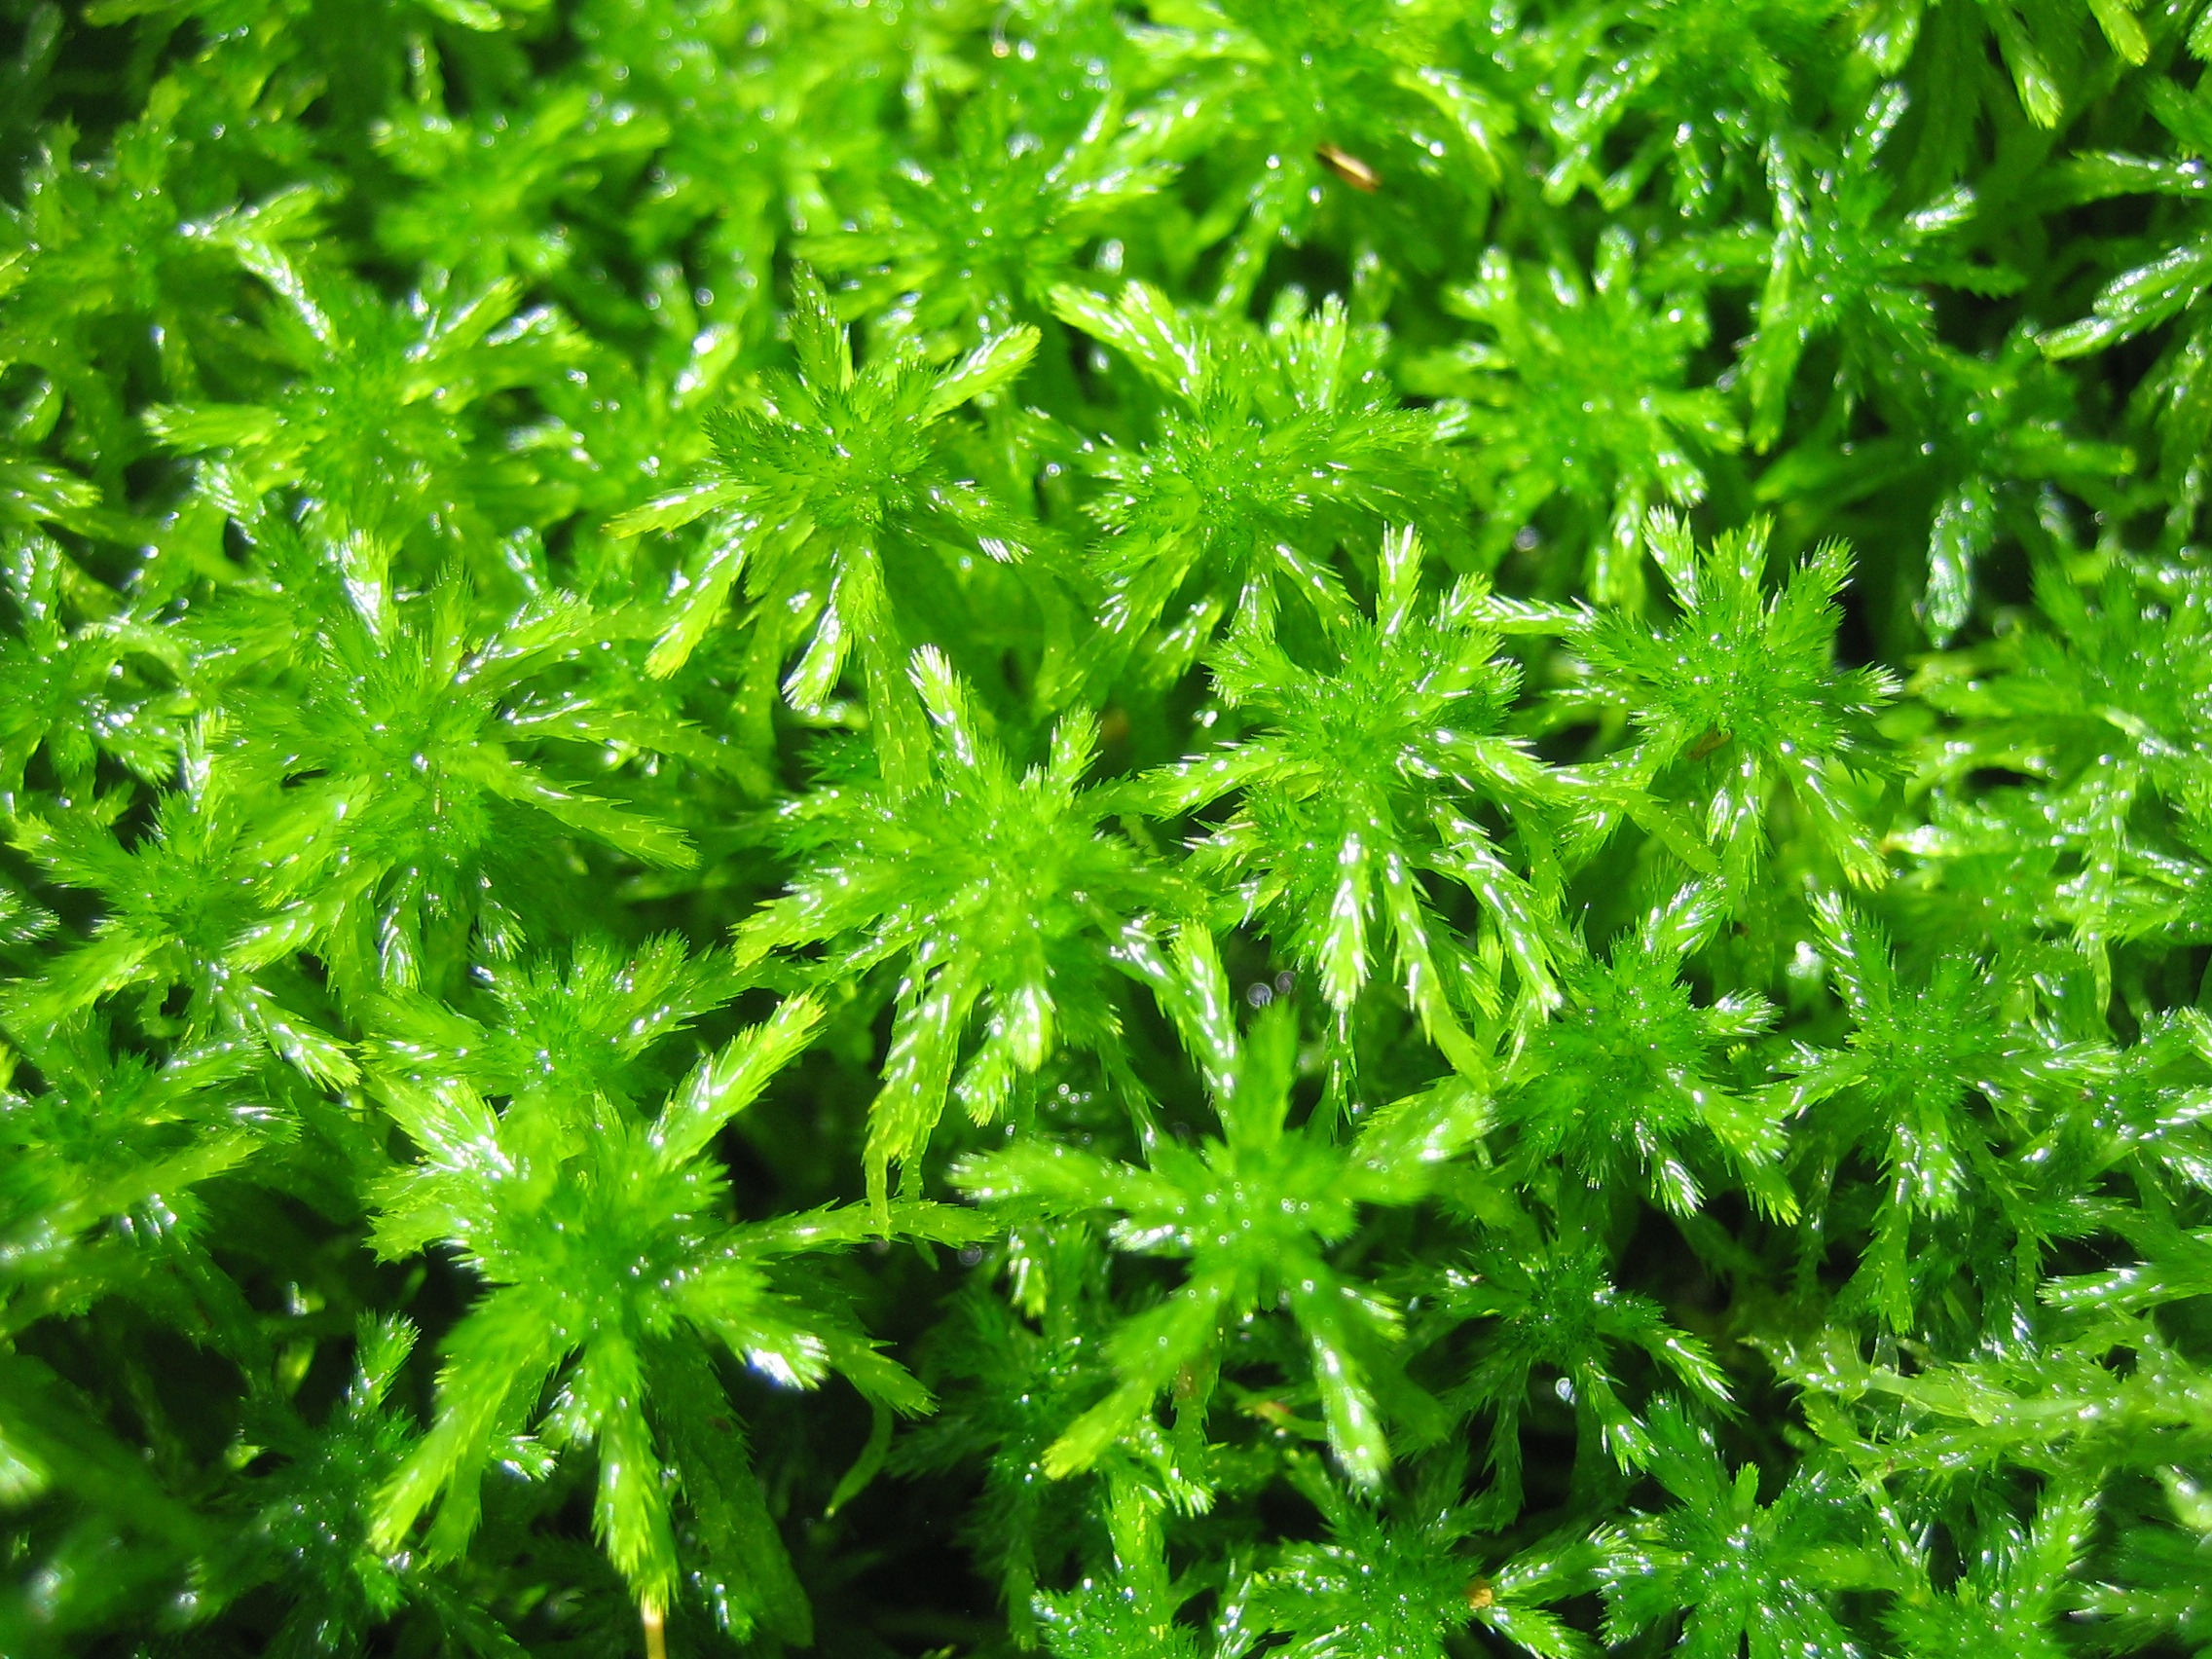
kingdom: Plantae
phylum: Bryophyta
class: Sphagnopsida
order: Sphagnales
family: Sphagnaceae
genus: Sphagnum
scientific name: Sphagnum
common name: Tørvemosslægten
